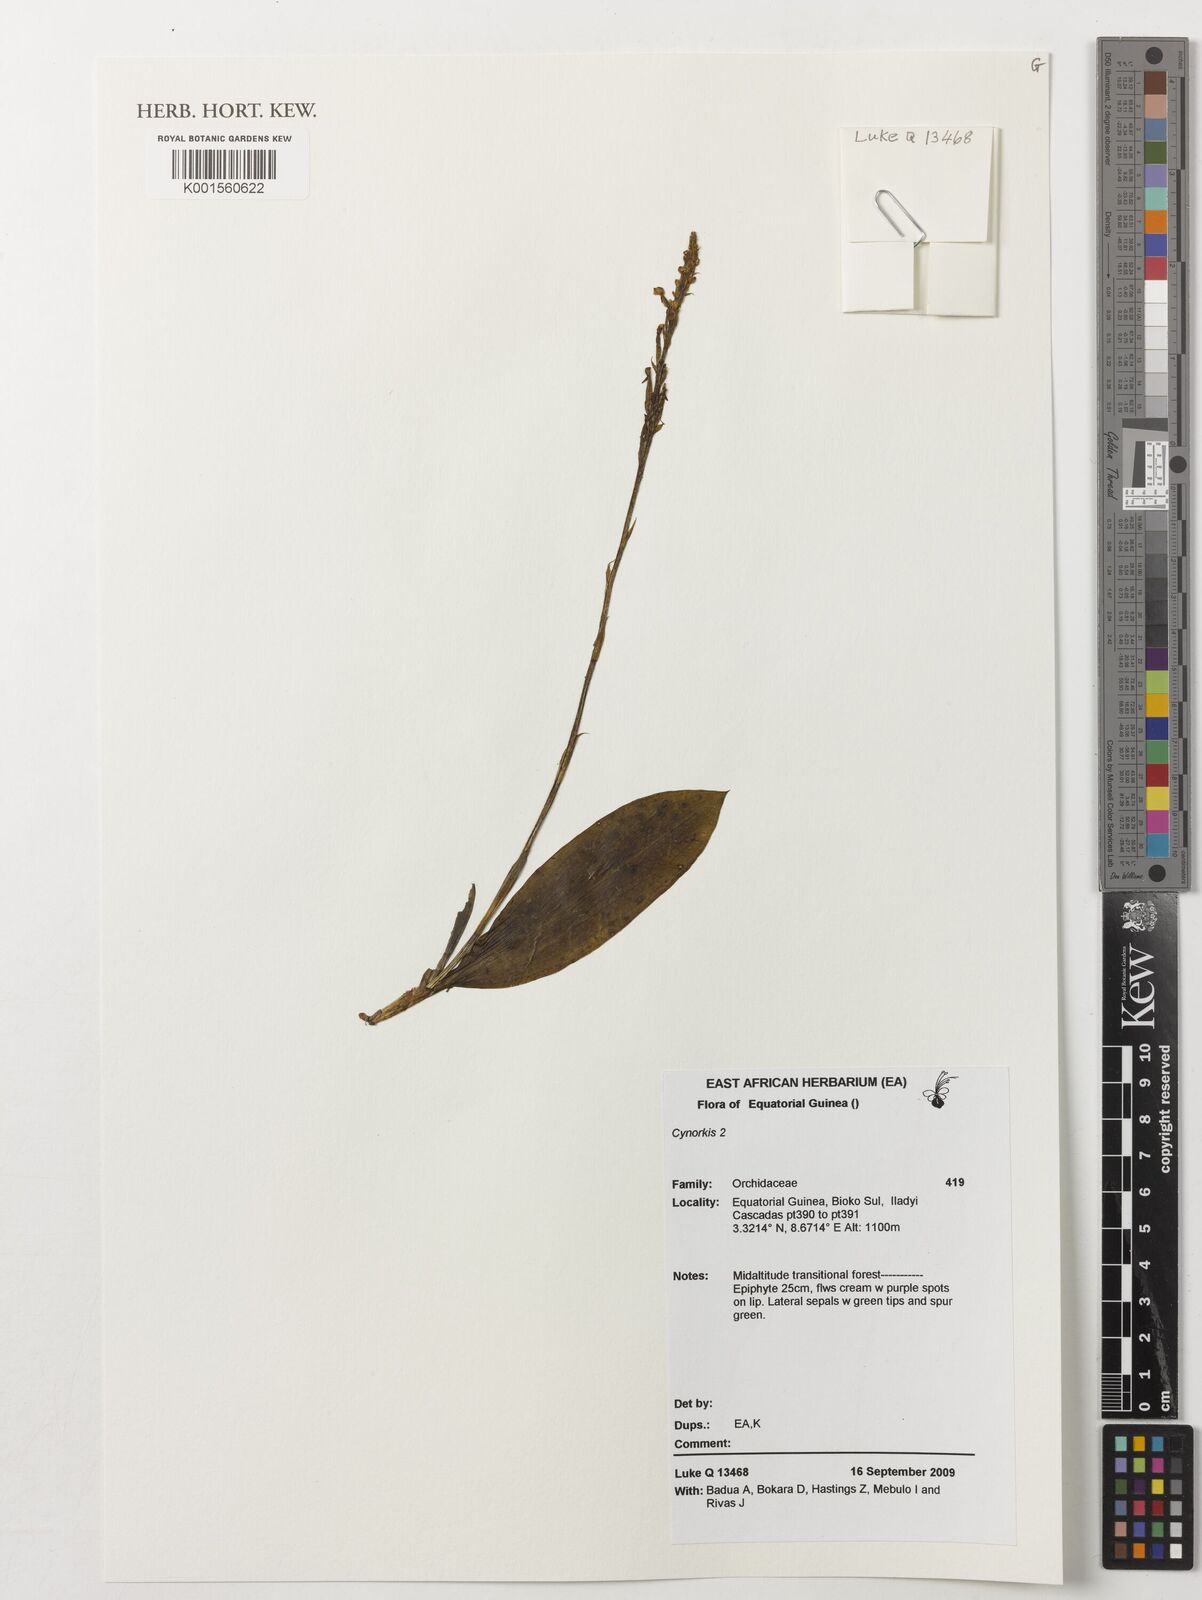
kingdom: Plantae
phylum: Tracheophyta
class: Liliopsida
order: Asparagales
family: Orchidaceae
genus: Cynorkis
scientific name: Cynorkis
